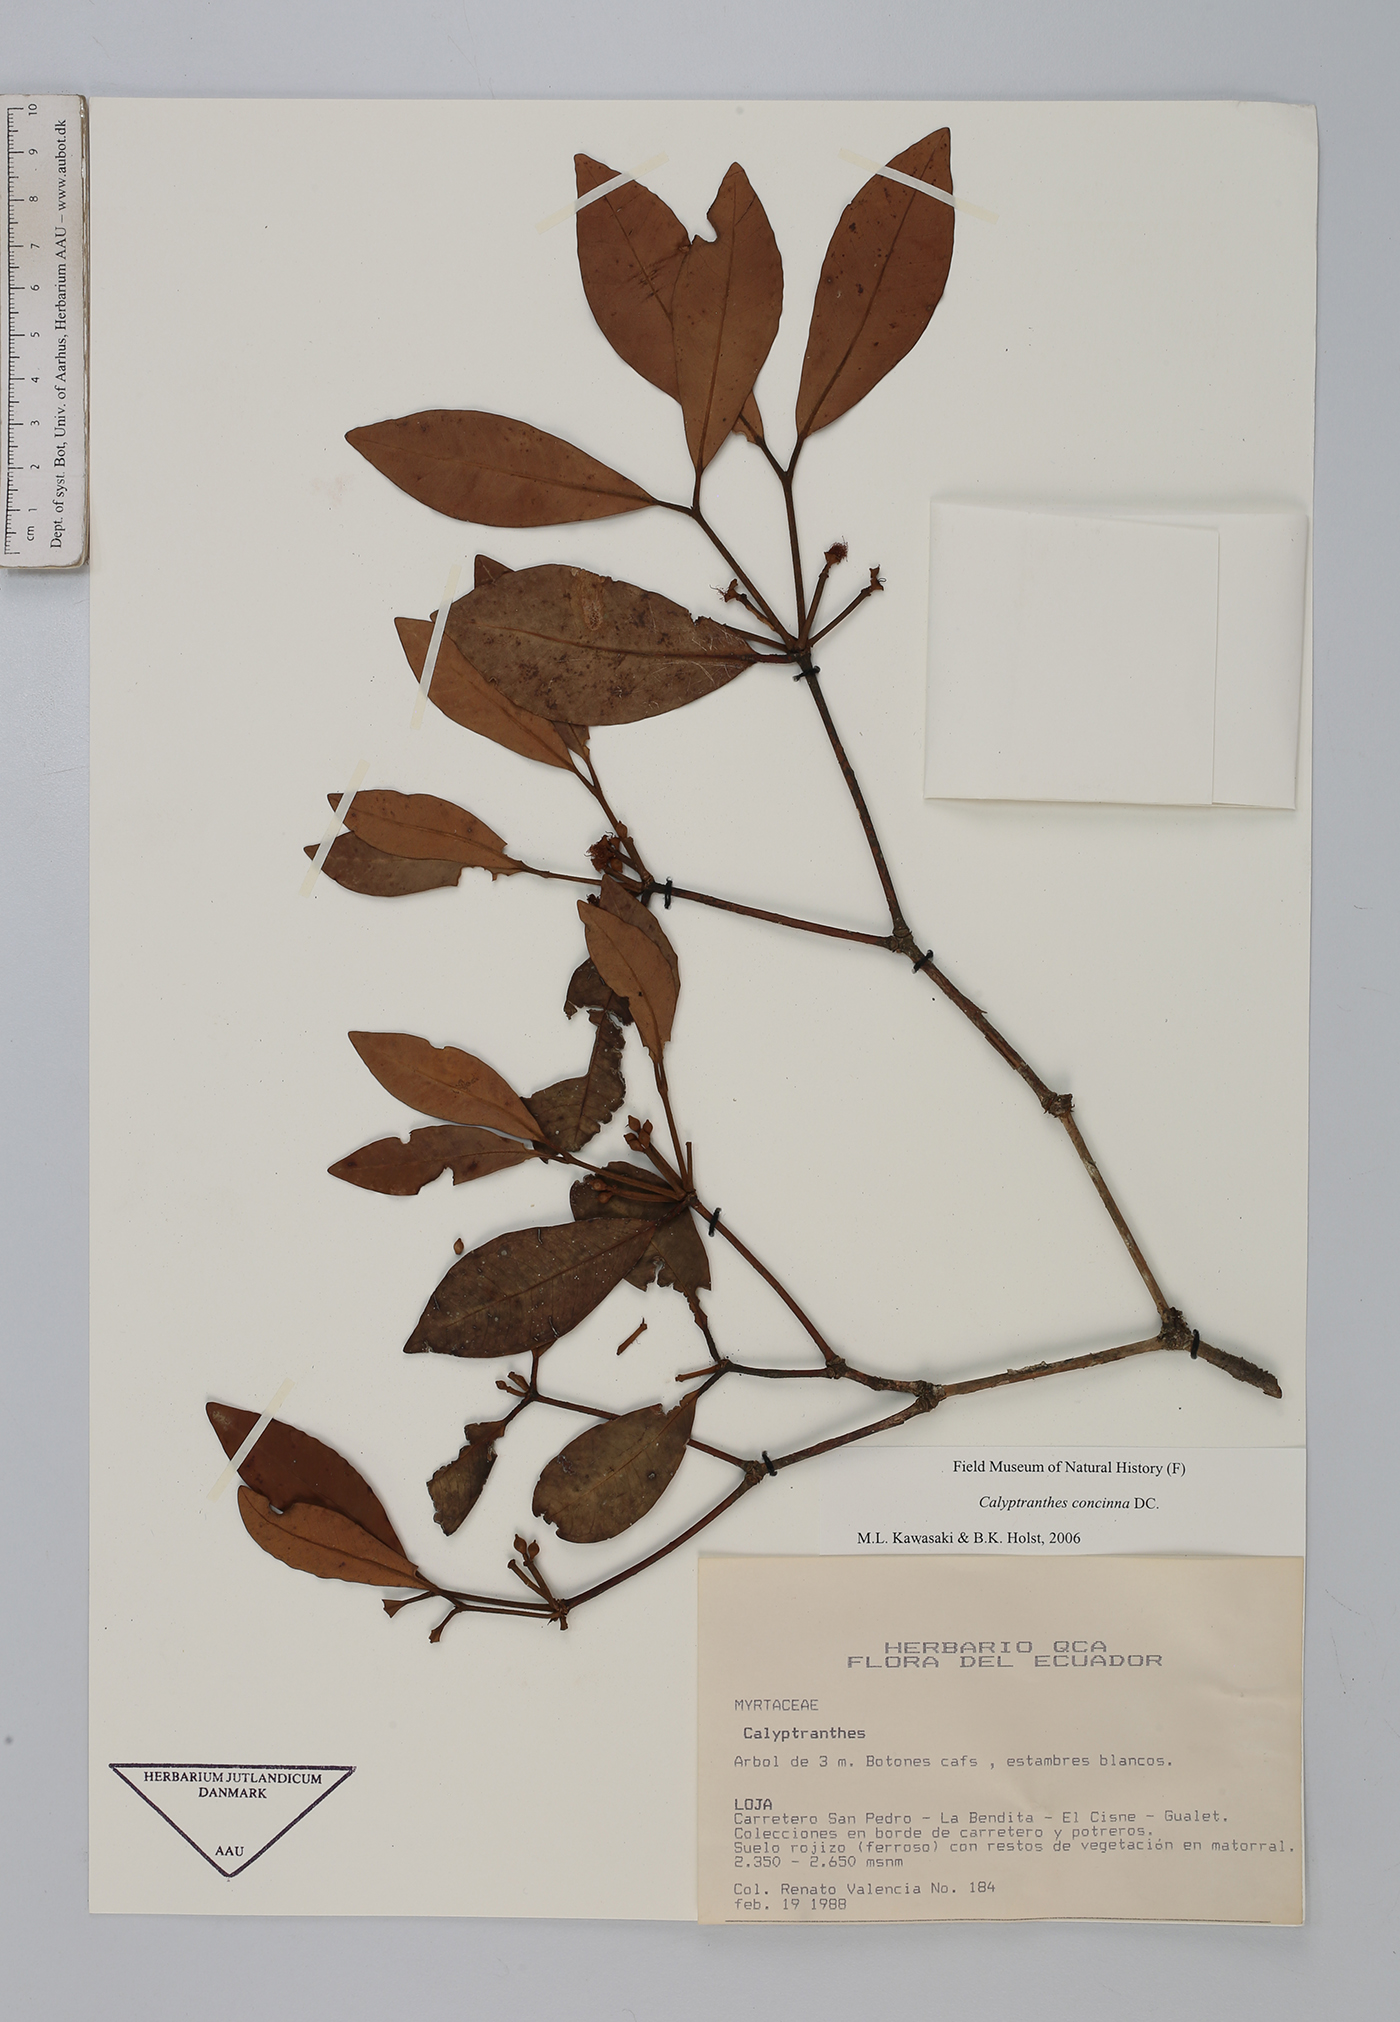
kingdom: Plantae
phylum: Tracheophyta
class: Magnoliopsida
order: Myrtales
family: Myrtaceae
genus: Myrcia
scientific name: Myrcia cruciflora
